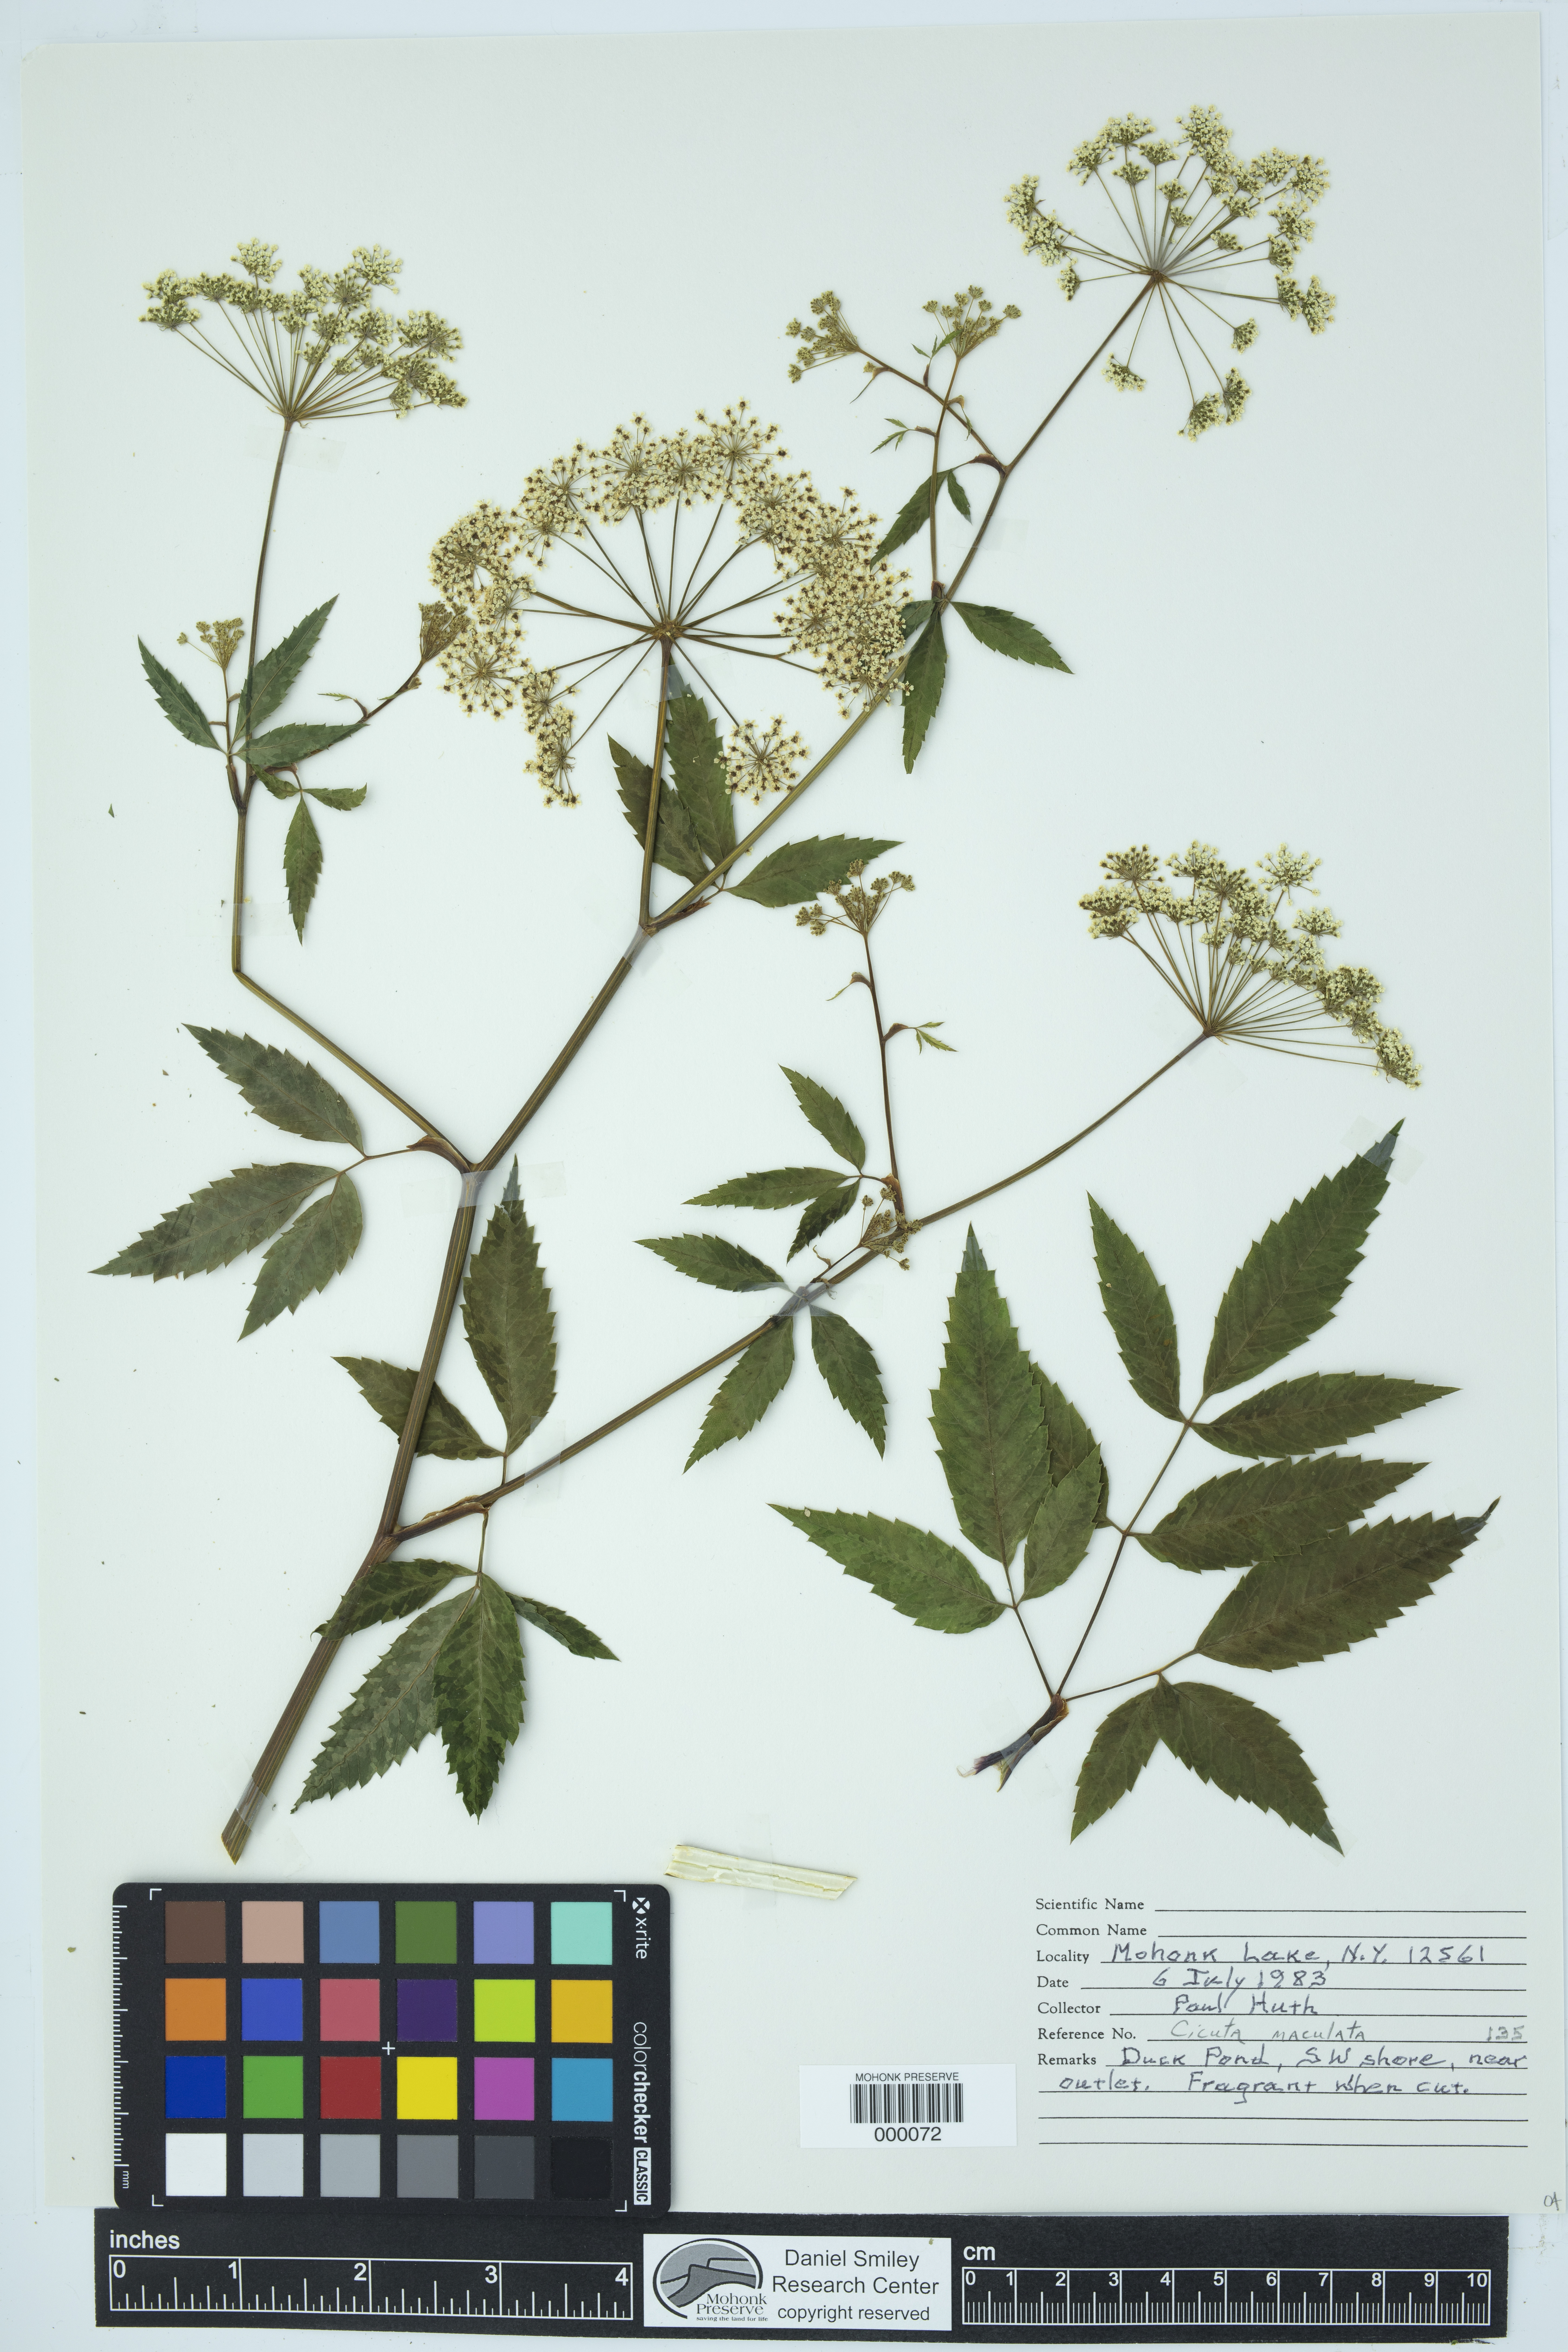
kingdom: Plantae
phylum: Tracheophyta
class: Magnoliopsida
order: Apiales
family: Apiaceae
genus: Cicuta
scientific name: Cicuta maculata
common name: Spotted cowbane
